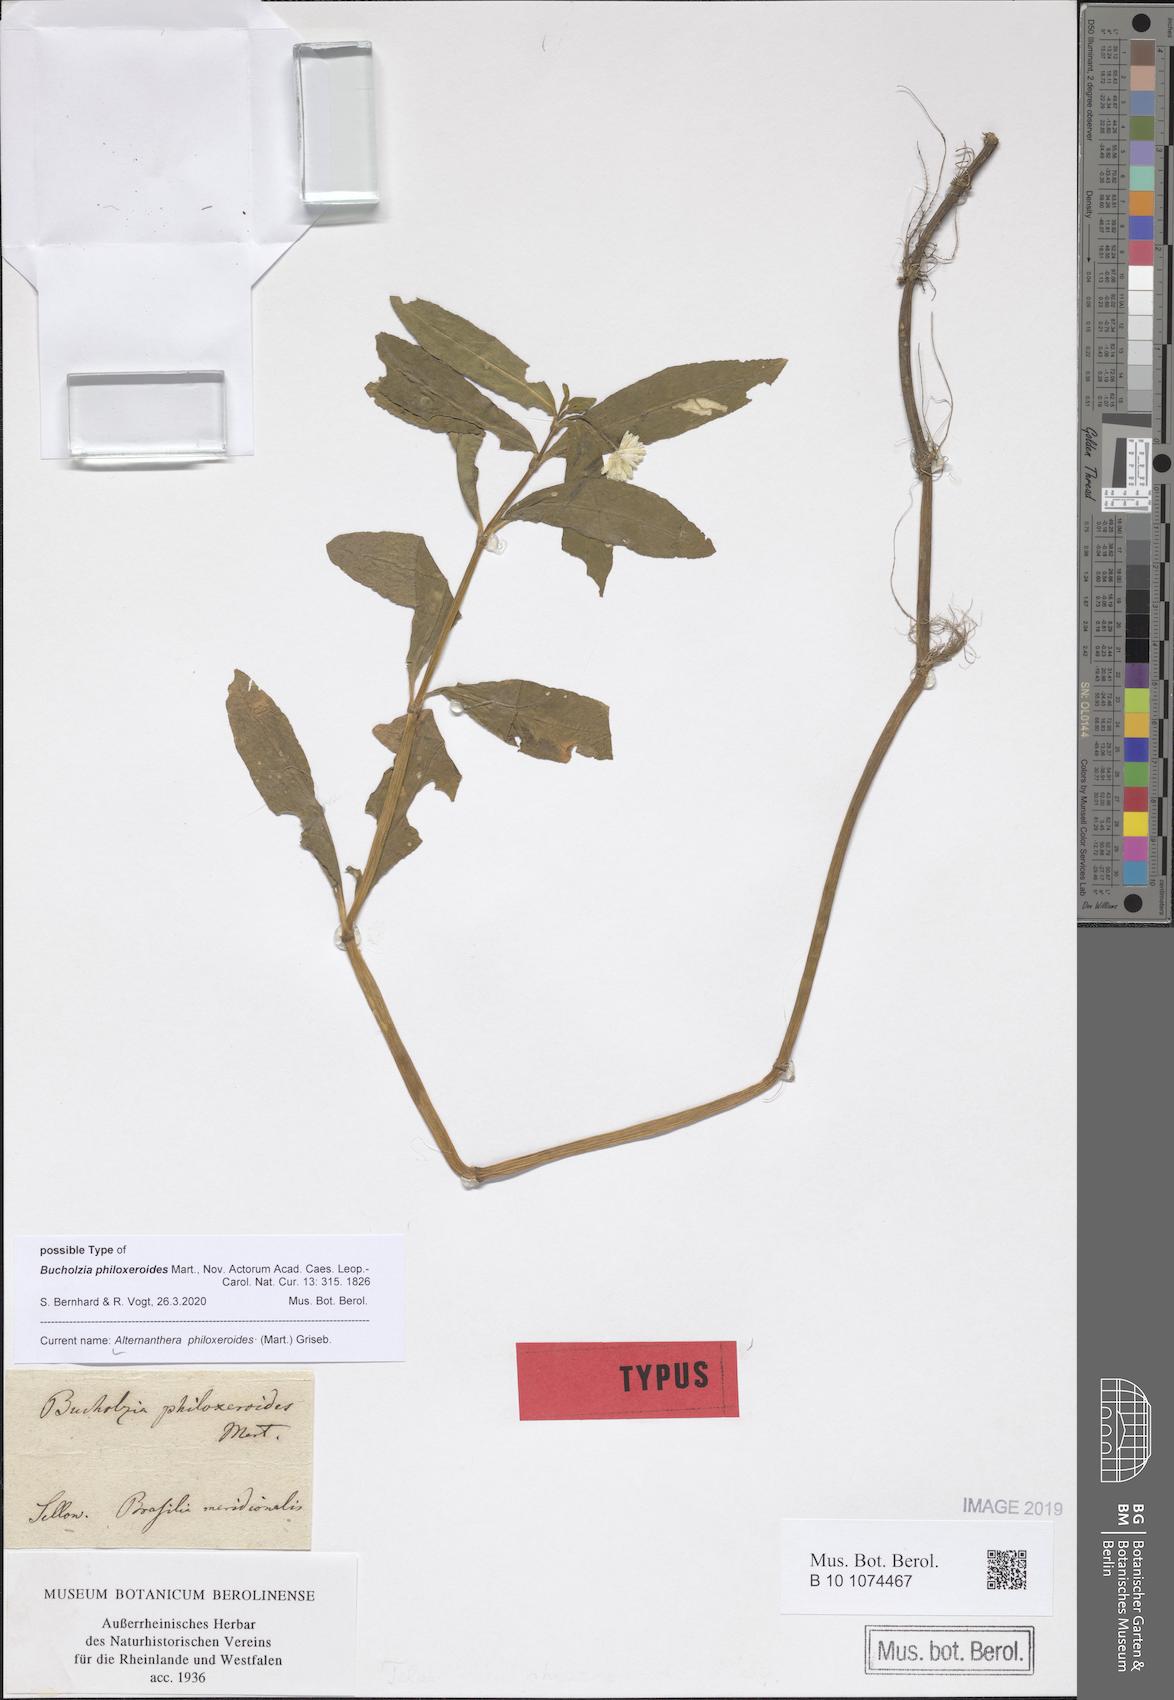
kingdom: Plantae
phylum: Tracheophyta
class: Magnoliopsida
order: Caryophyllales
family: Amaranthaceae
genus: Alternanthera
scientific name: Alternanthera philoxeroides
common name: Alligatorweed
